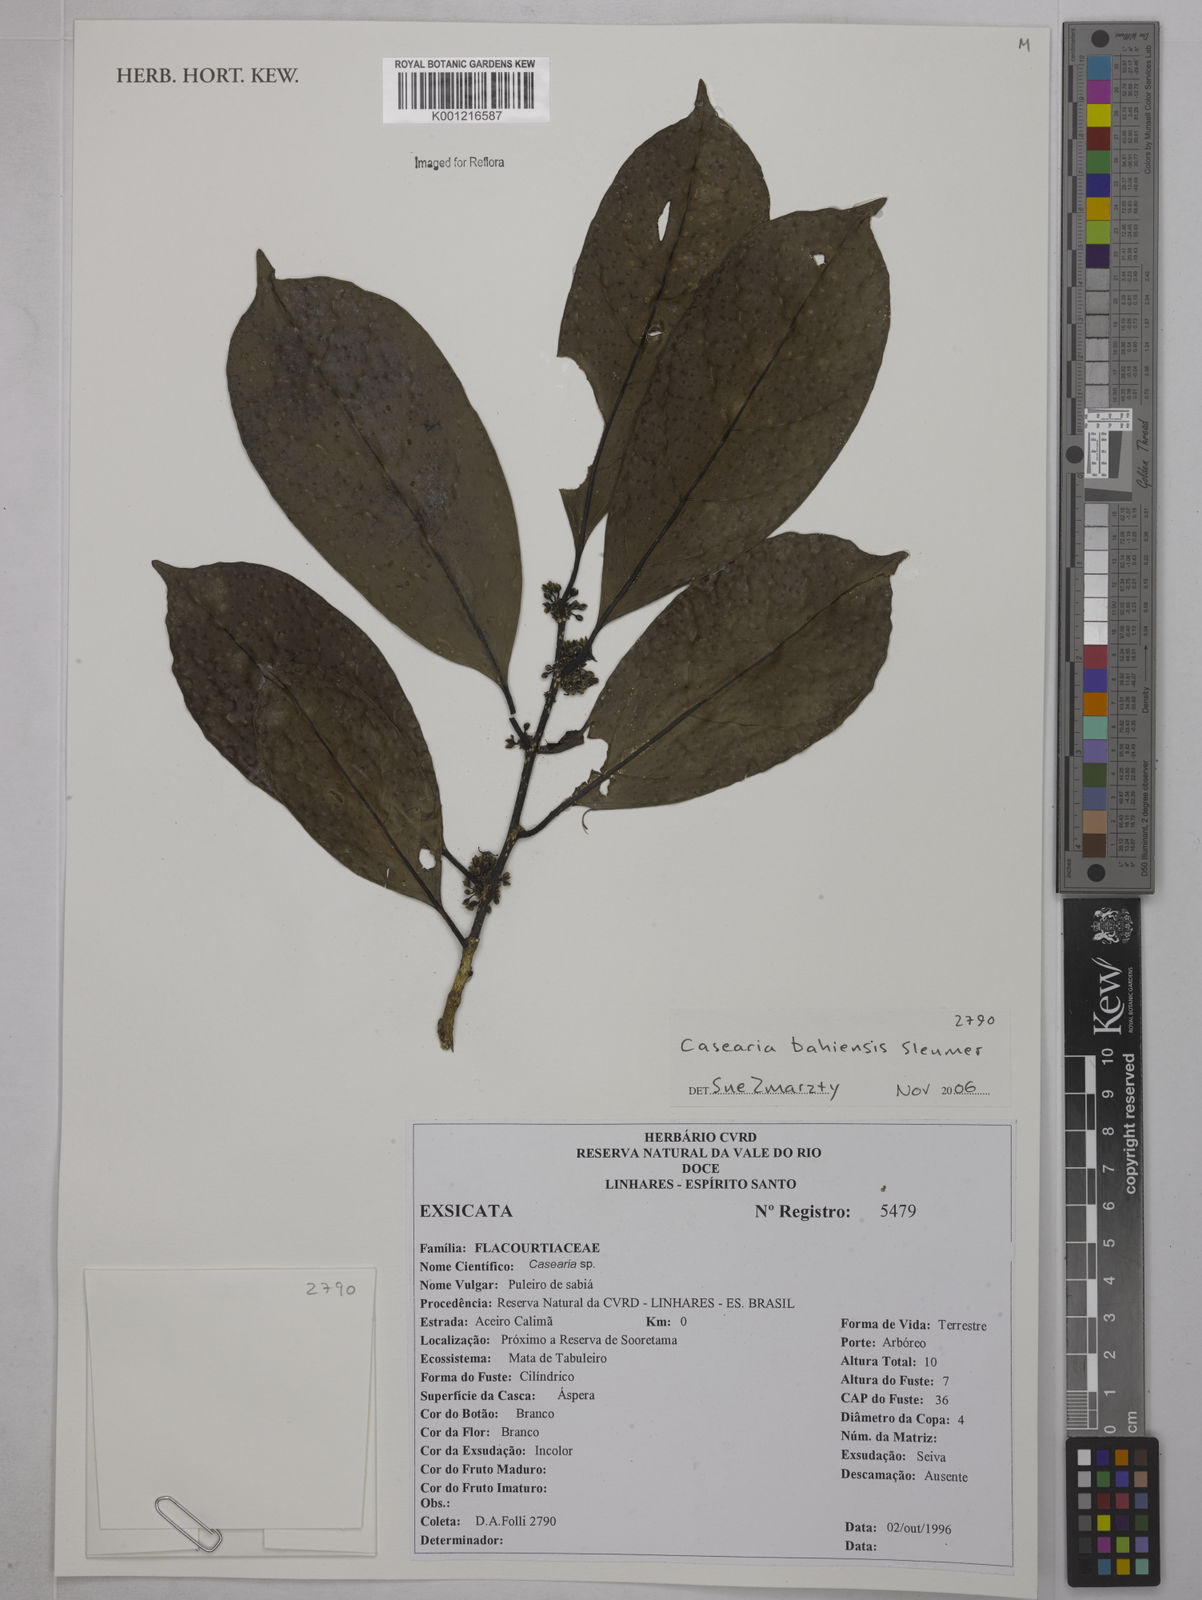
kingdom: Plantae
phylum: Tracheophyta
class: Magnoliopsida
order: Malpighiales
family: Salicaceae
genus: Casearia
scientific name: Casearia bahiensis
